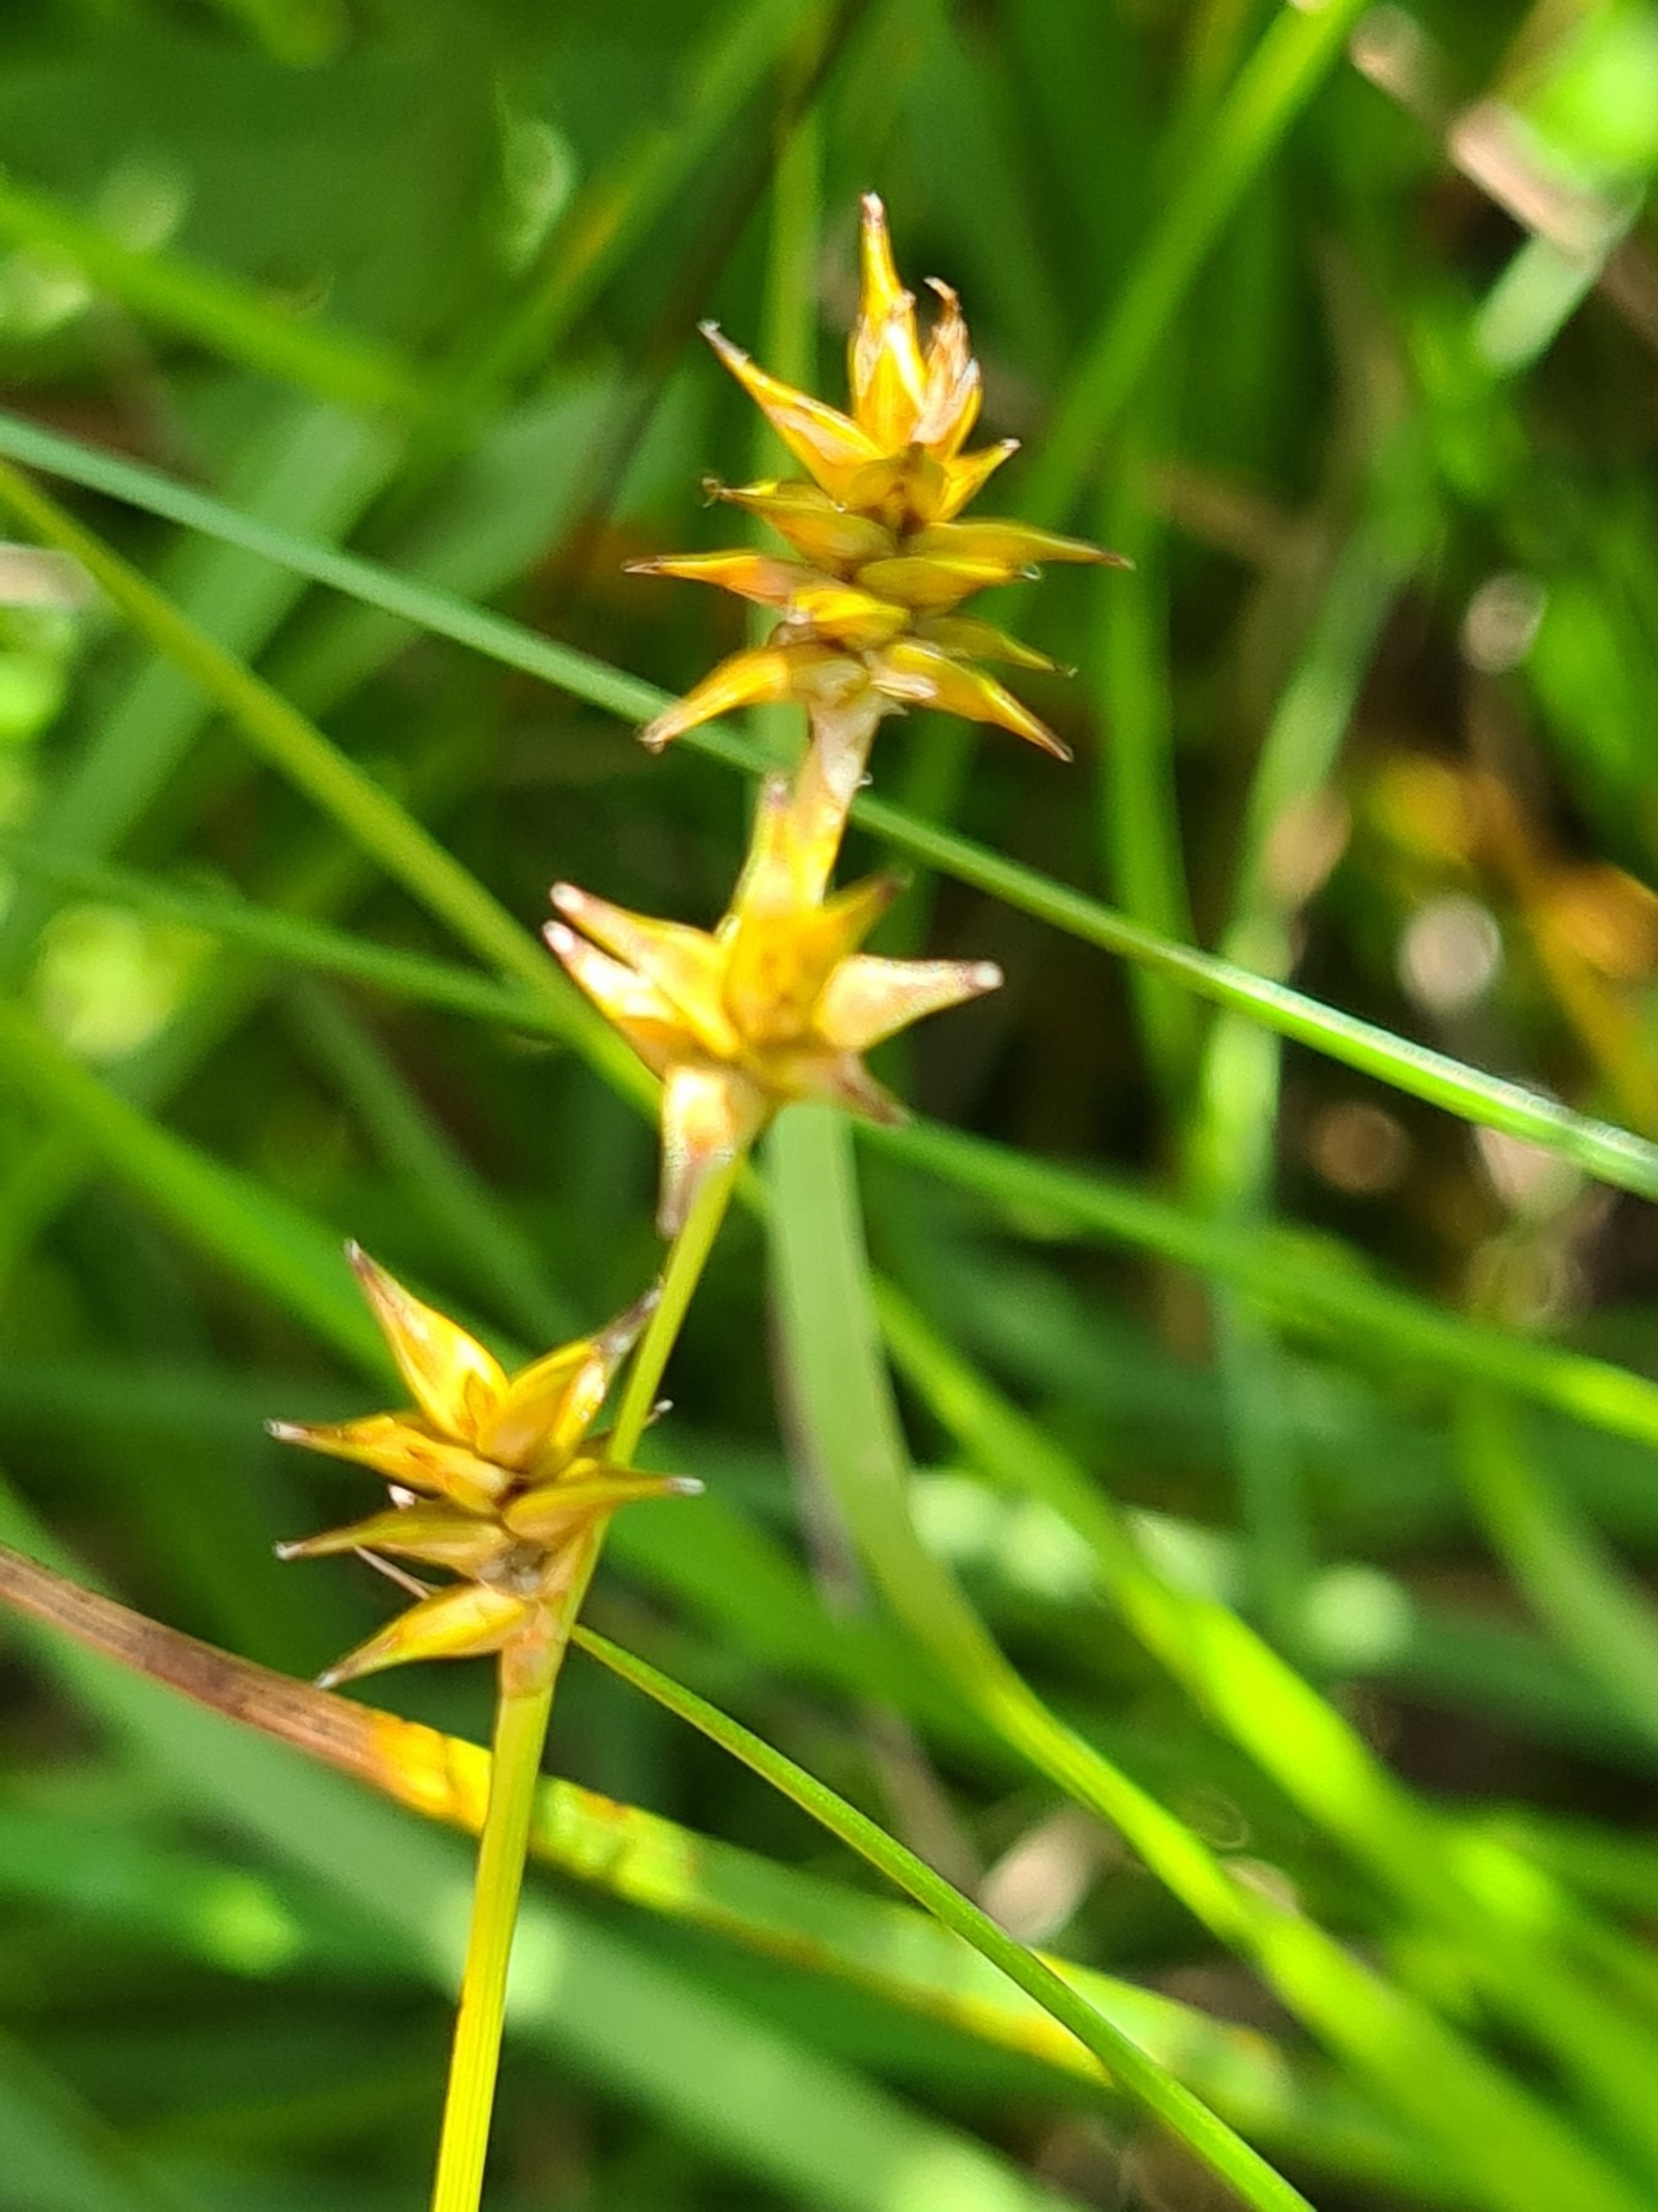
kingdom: Plantae
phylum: Tracheophyta
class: Liliopsida
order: Poales
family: Cyperaceae
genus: Carex
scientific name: Carex echinata
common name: Stjerne-star
